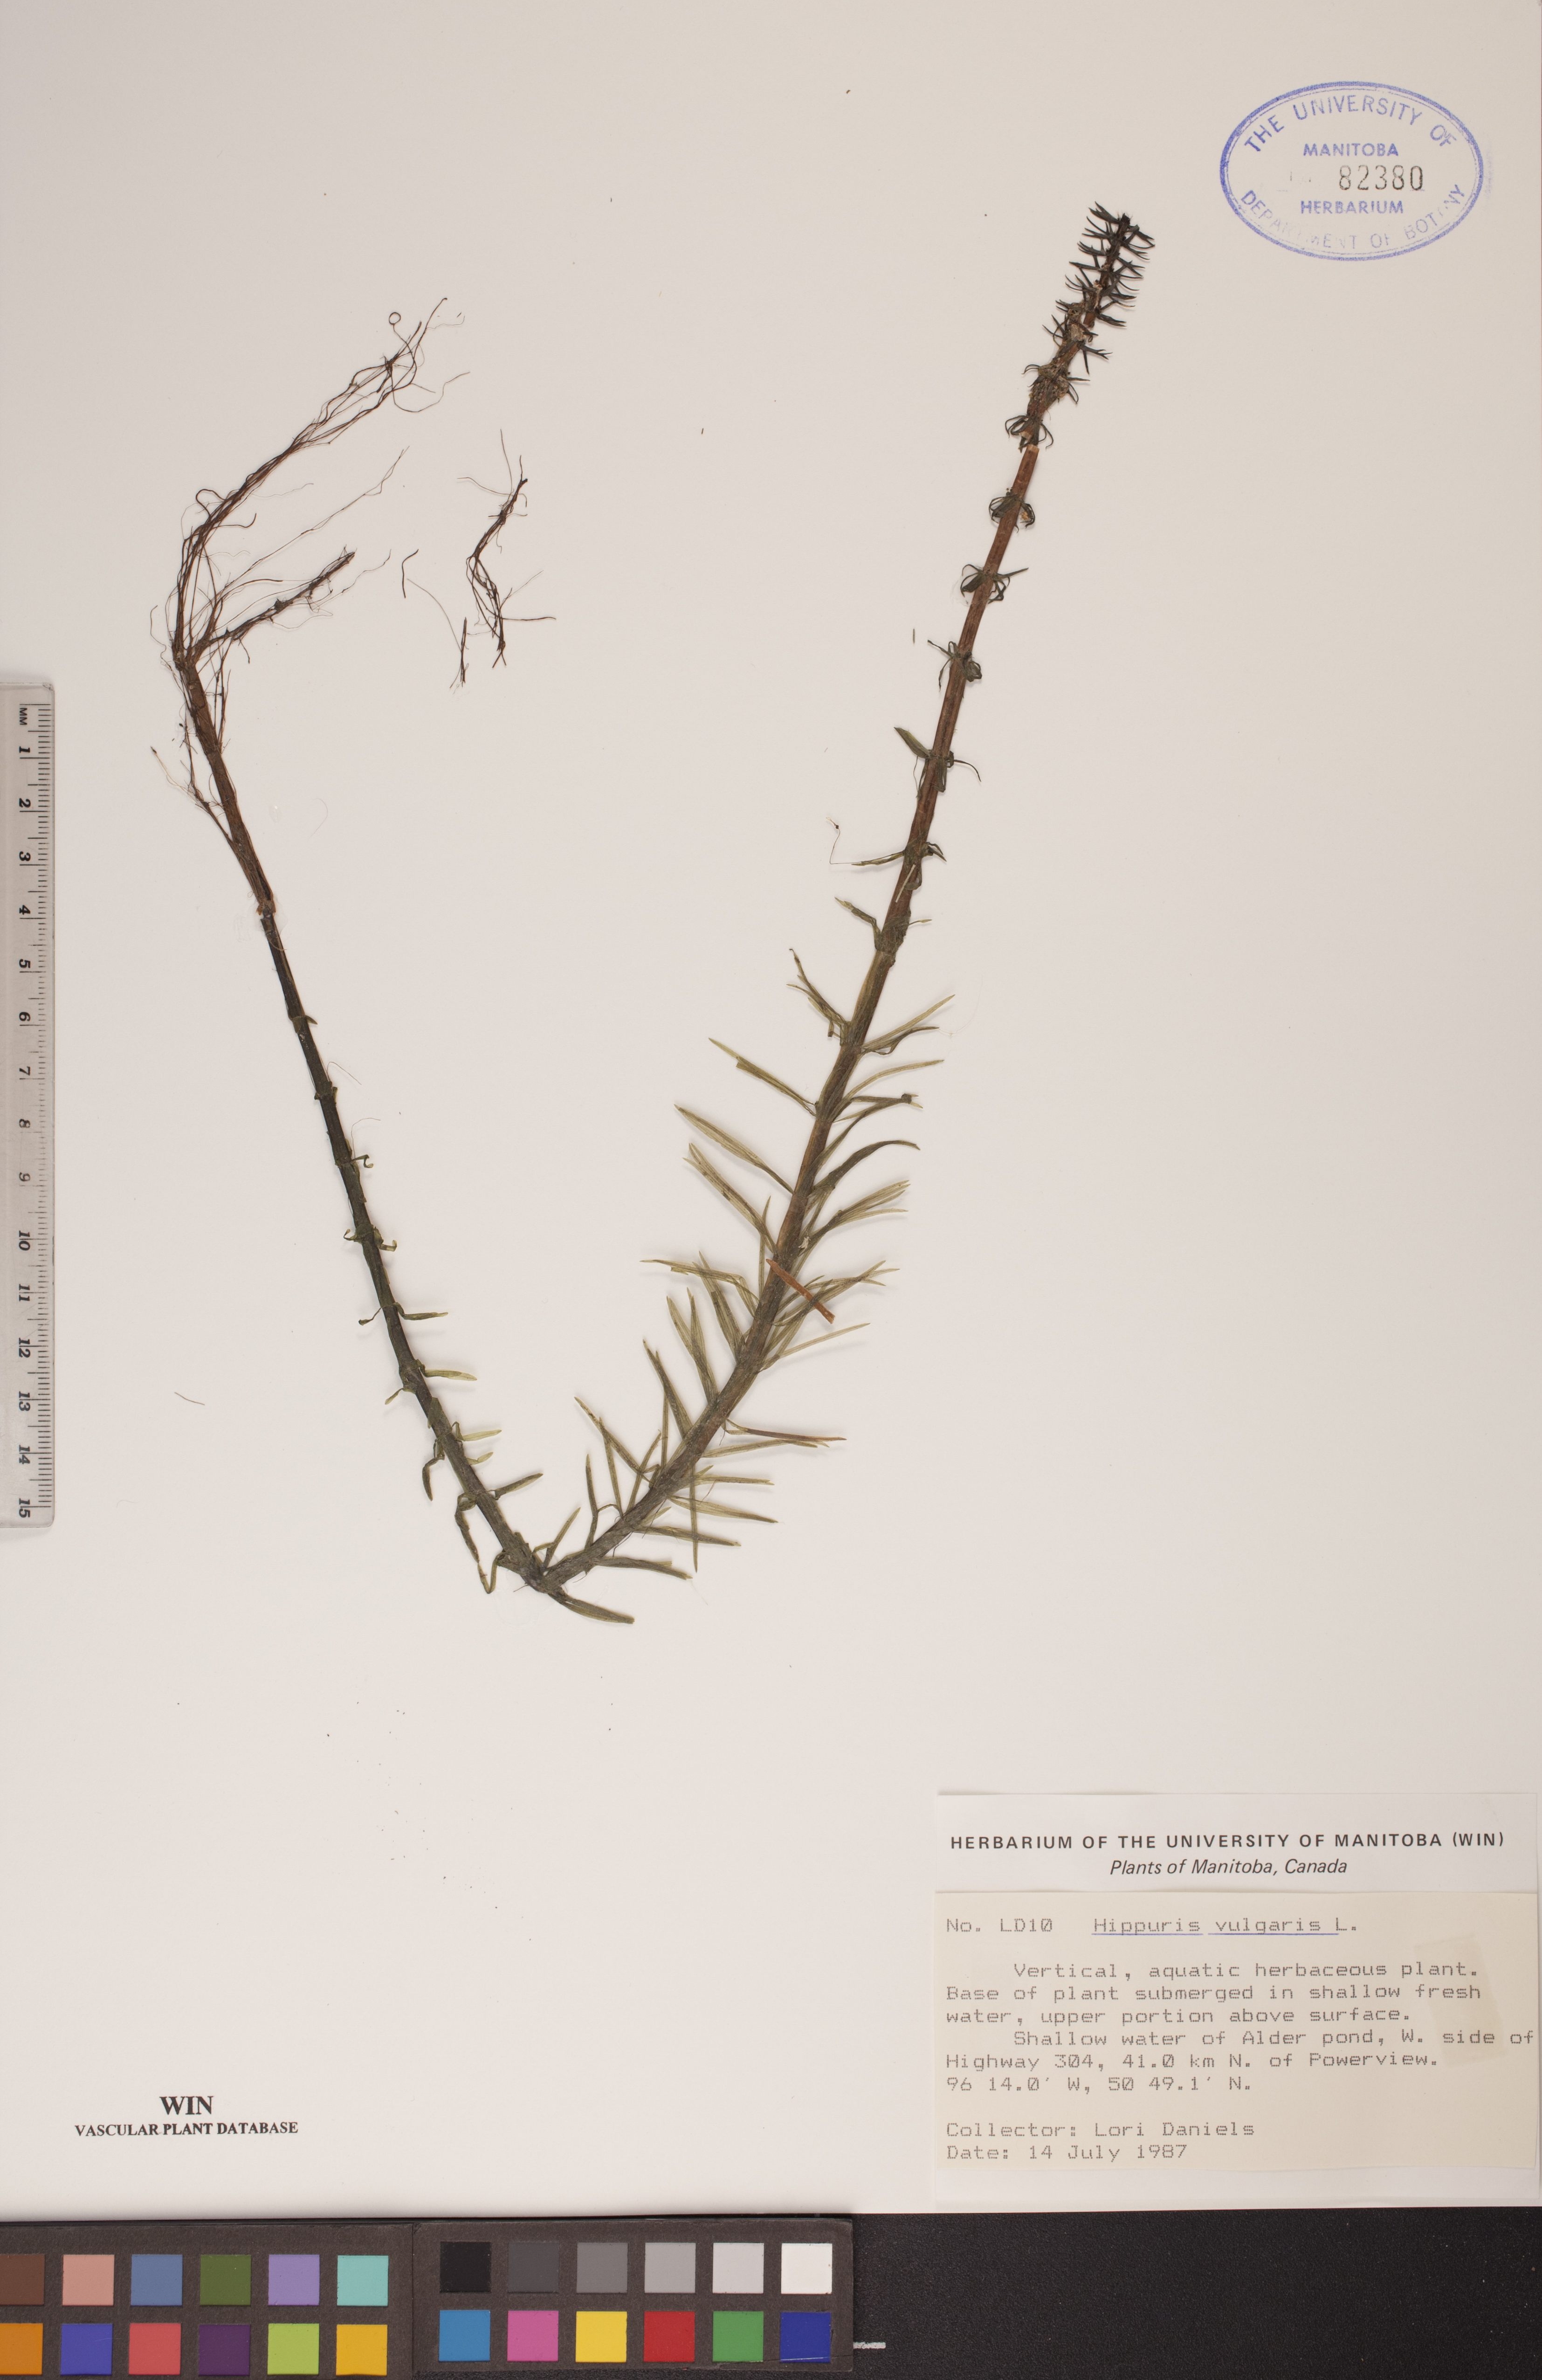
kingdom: Plantae
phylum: Tracheophyta
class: Magnoliopsida
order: Lamiales
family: Plantaginaceae
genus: Hippuris
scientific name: Hippuris vulgaris
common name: Mare's-tail
